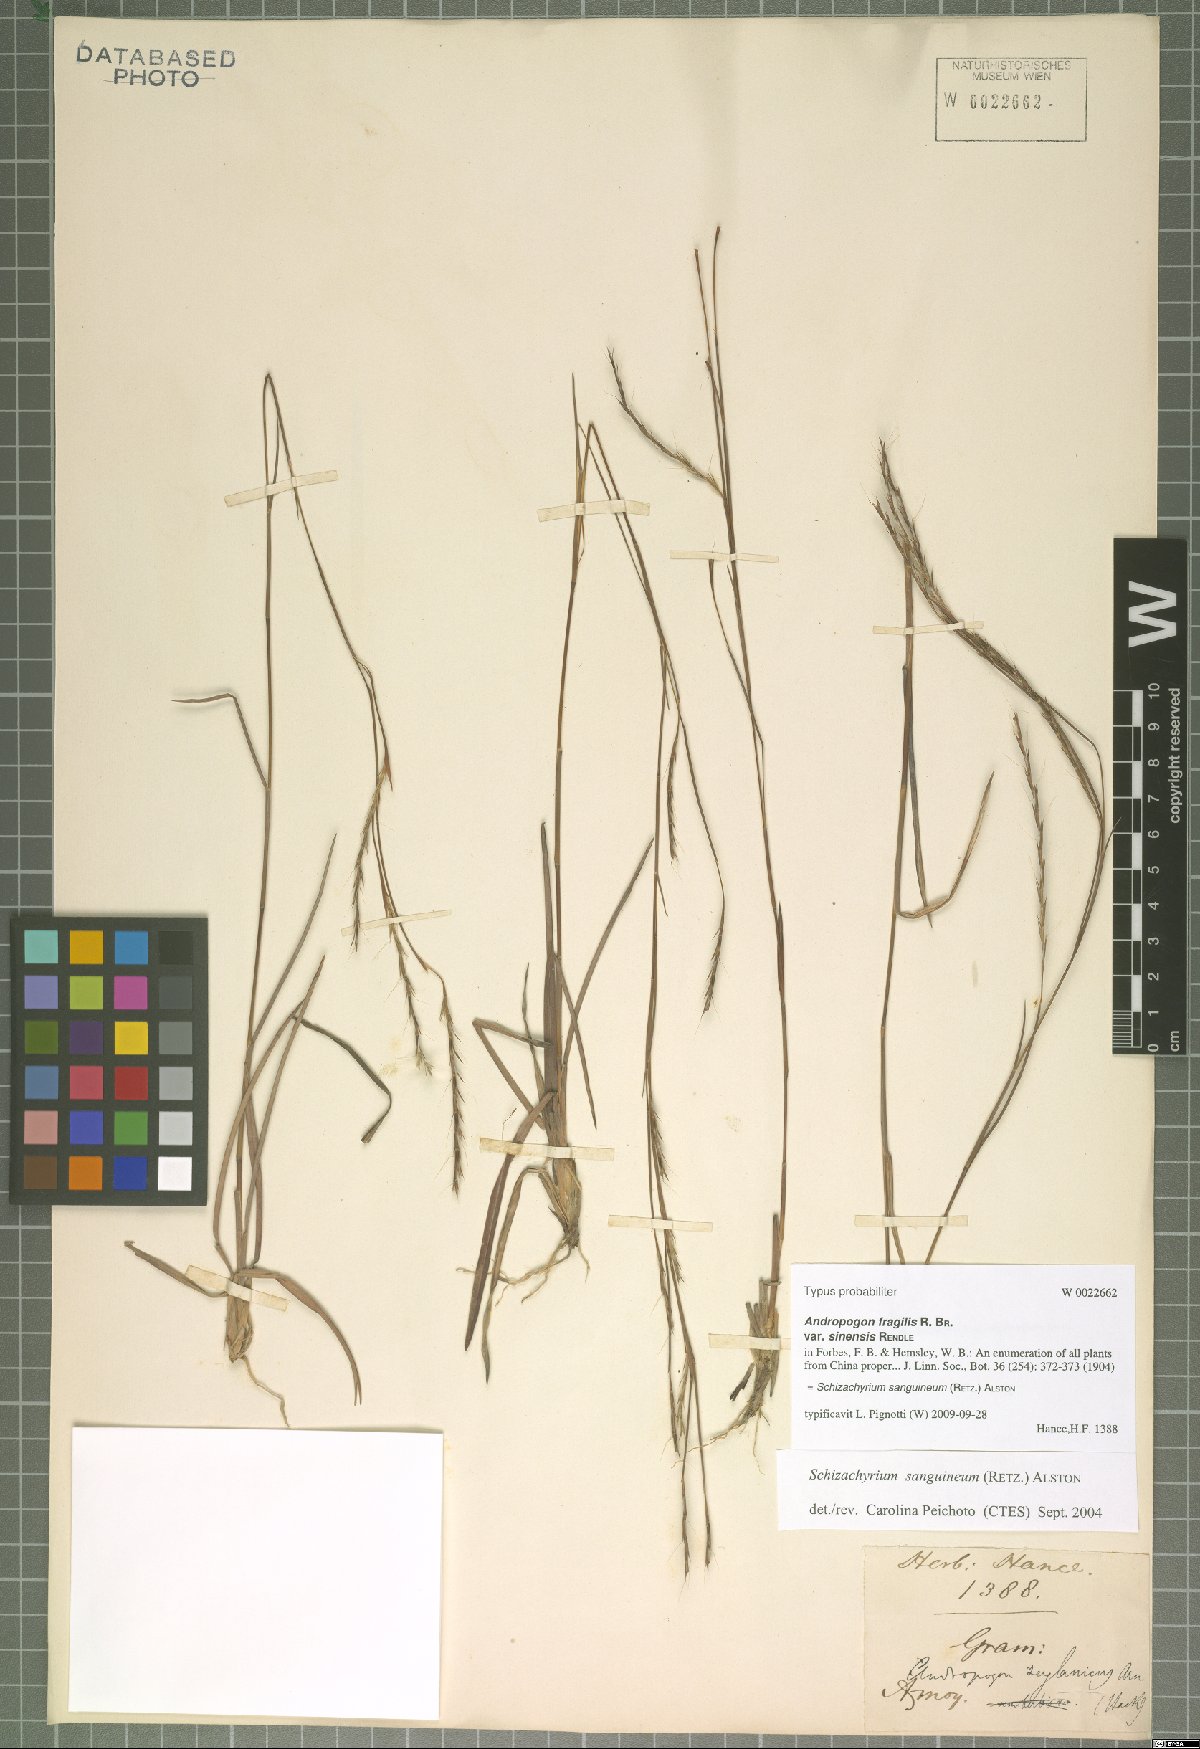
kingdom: Plantae
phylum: Tracheophyta
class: Liliopsida
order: Poales
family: Poaceae
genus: Schizachyrium
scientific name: Schizachyrium sanguineum
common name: Crimson bluestem
